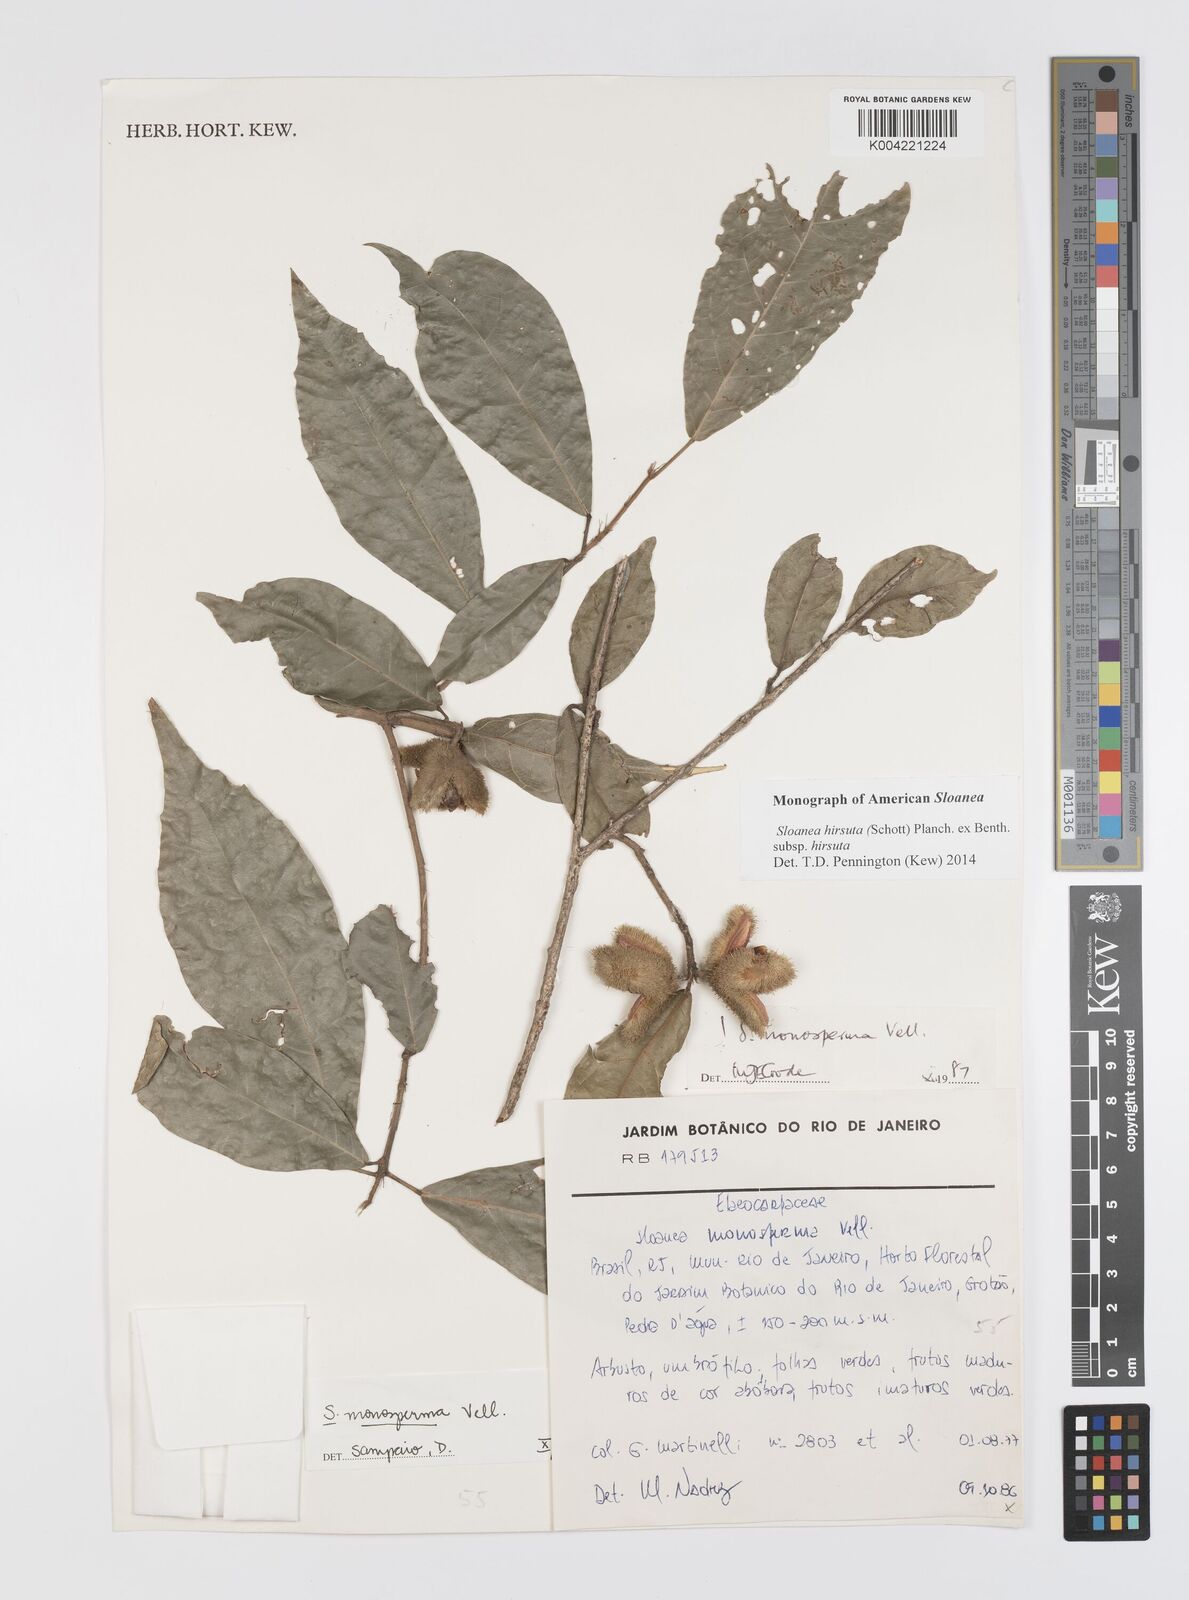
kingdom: Plantae
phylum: Tracheophyta
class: Magnoliopsida
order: Oxalidales
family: Elaeocarpaceae
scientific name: Elaeocarpaceae
